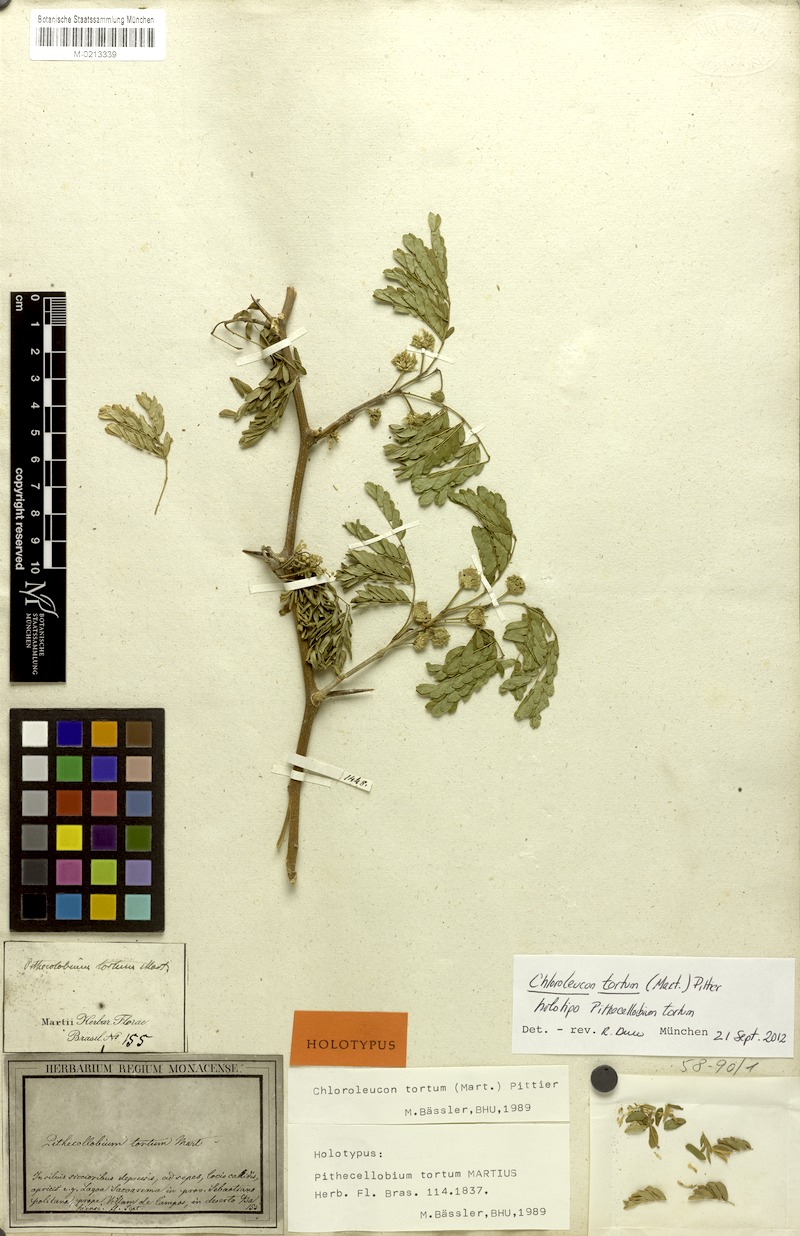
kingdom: Plantae
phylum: Tracheophyta
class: Magnoliopsida
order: Fabales
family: Fabaceae
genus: Chloroleucon
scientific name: Chloroleucon tortum
